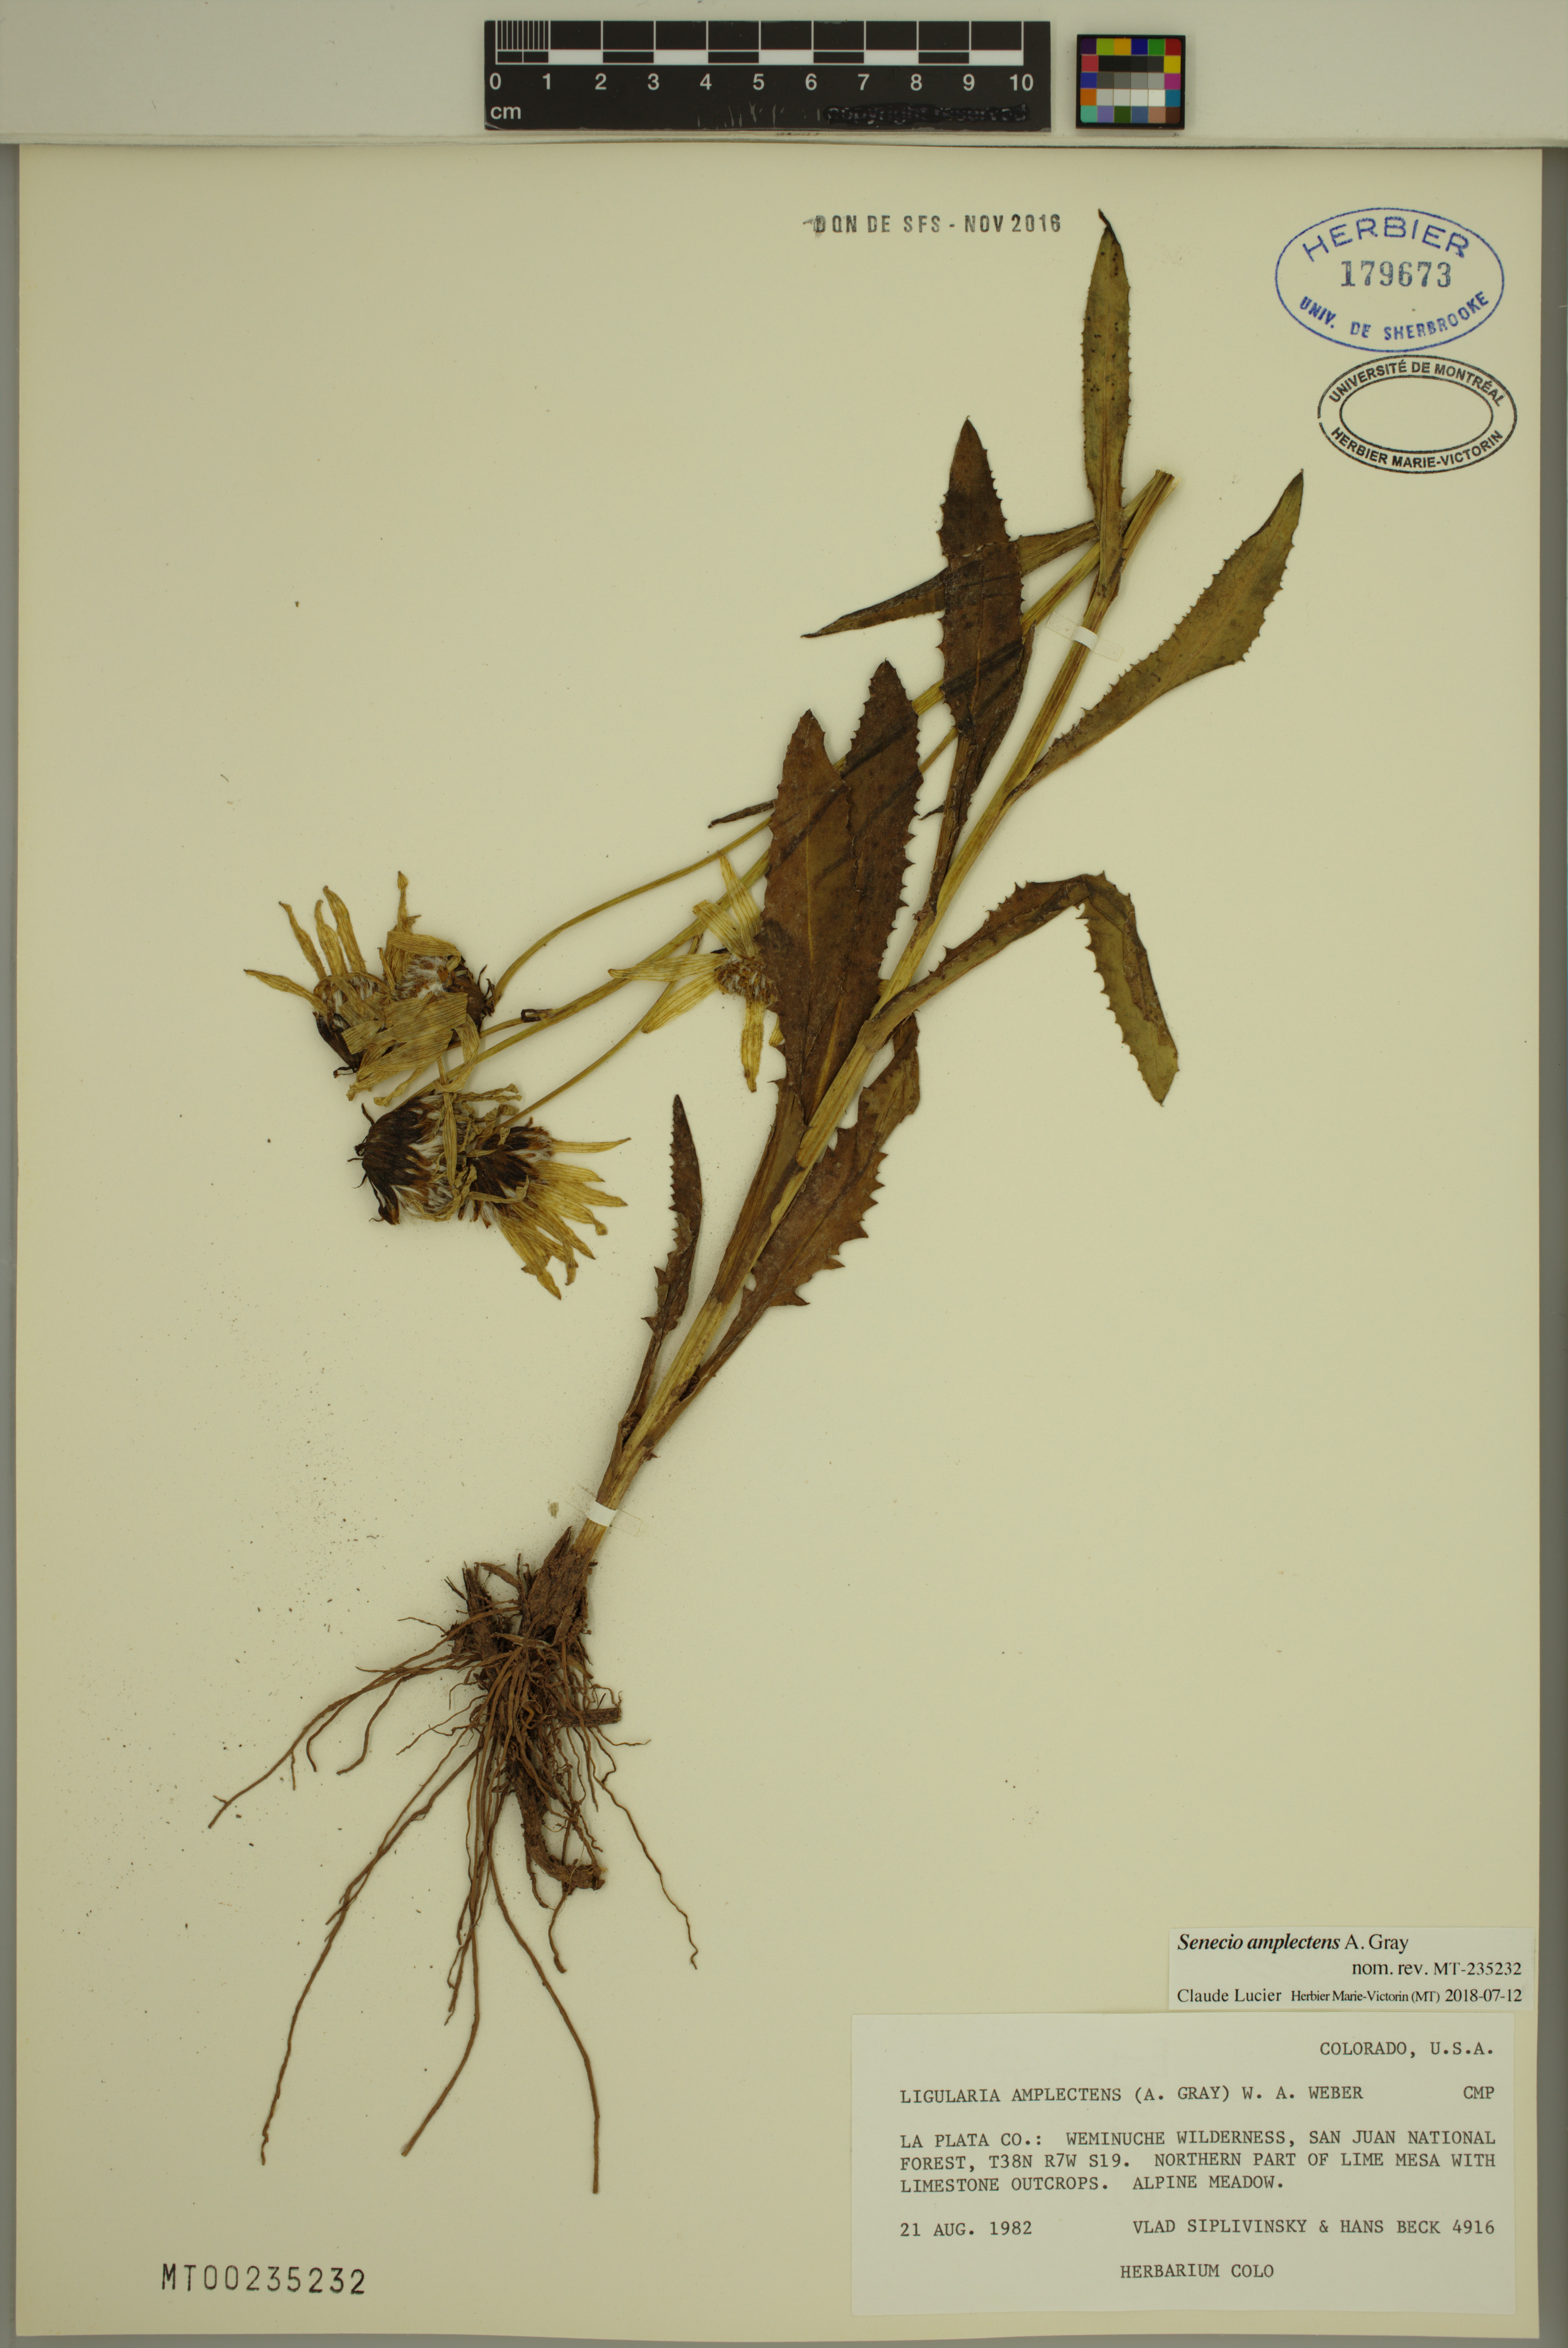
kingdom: Plantae
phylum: Tracheophyta
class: Magnoliopsida
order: Asterales
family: Asteraceae
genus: Senecio
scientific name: Senecio amplectens
